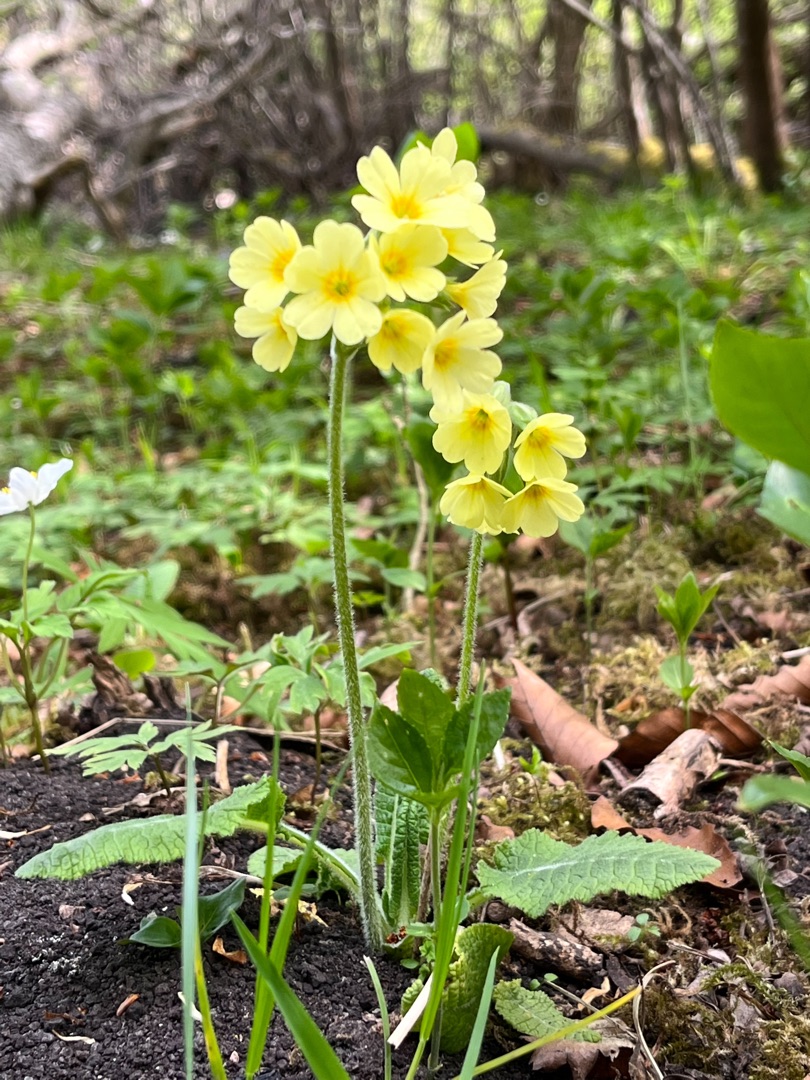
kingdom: Plantae
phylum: Tracheophyta
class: Magnoliopsida
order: Ericales
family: Primulaceae
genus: Primula
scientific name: Primula elatior
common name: Fladkravet kodriver
